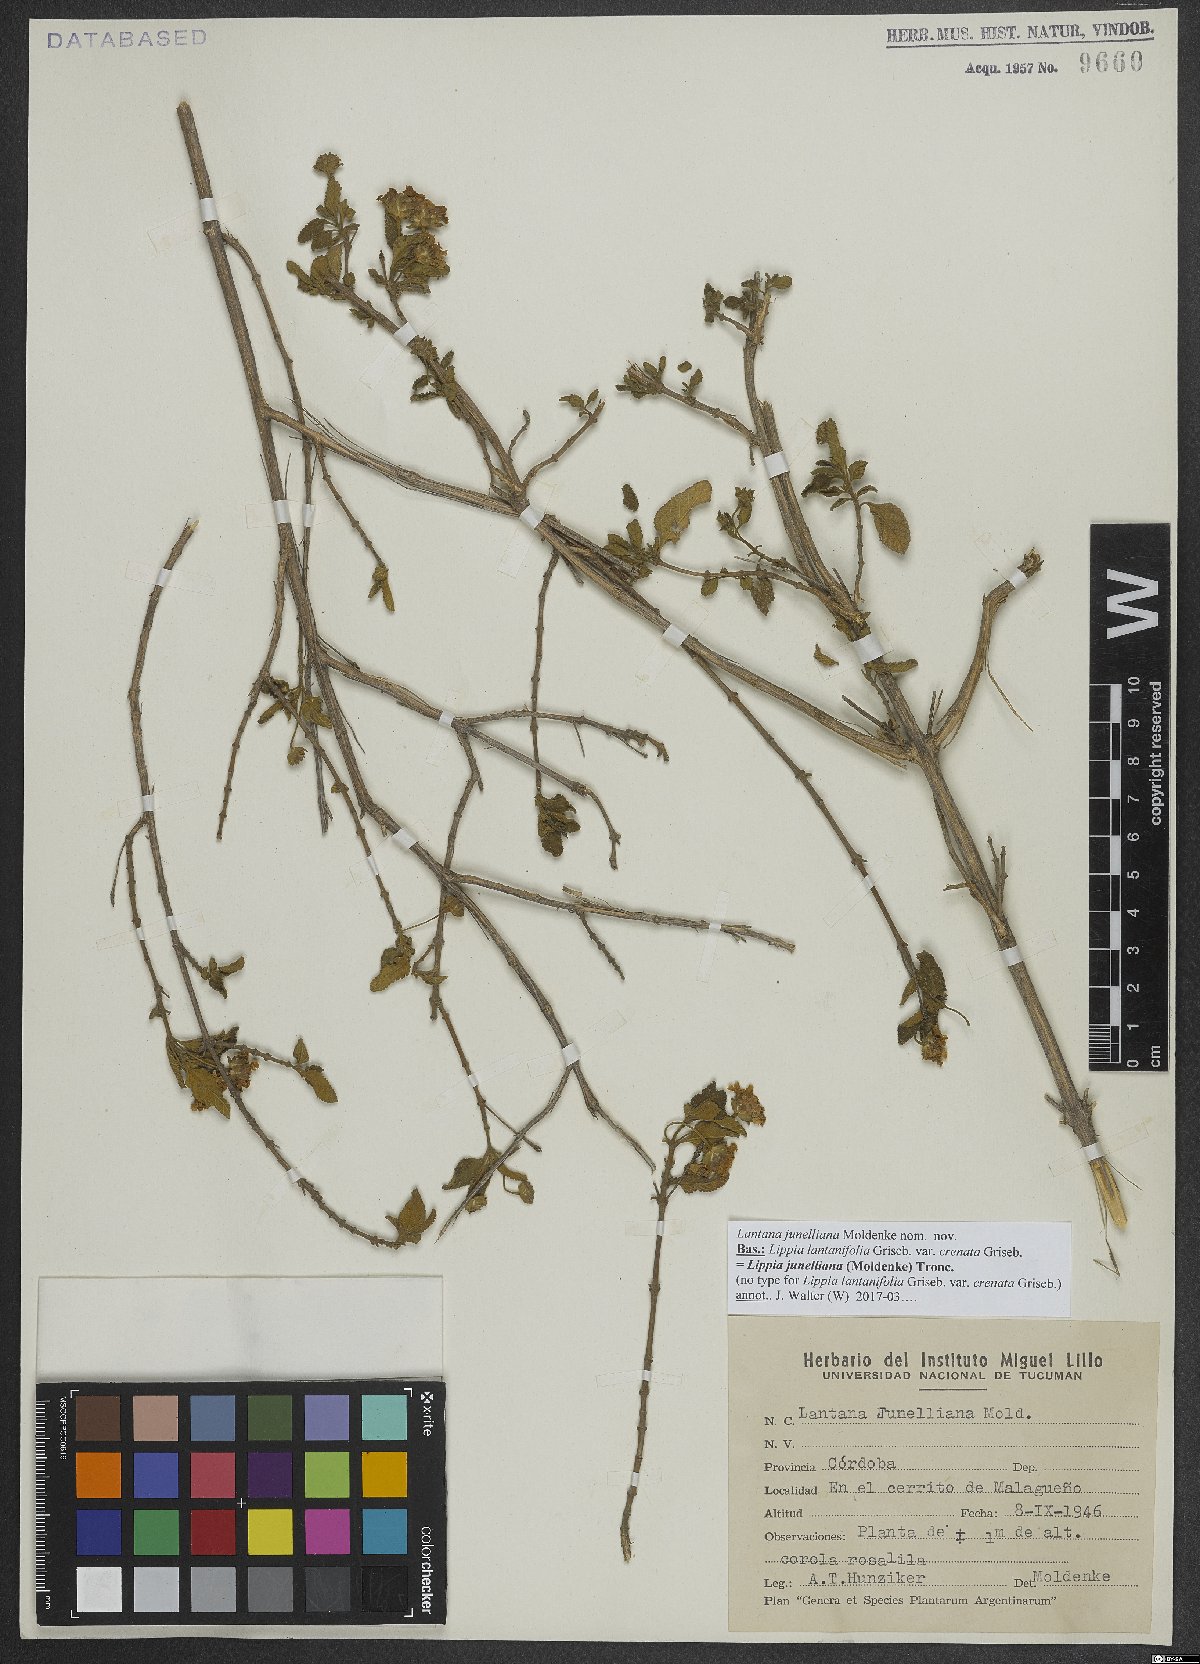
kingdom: Plantae
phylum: Tracheophyta
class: Magnoliopsida
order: Lamiales
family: Verbenaceae
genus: Lippia
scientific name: Lippia junelliana
